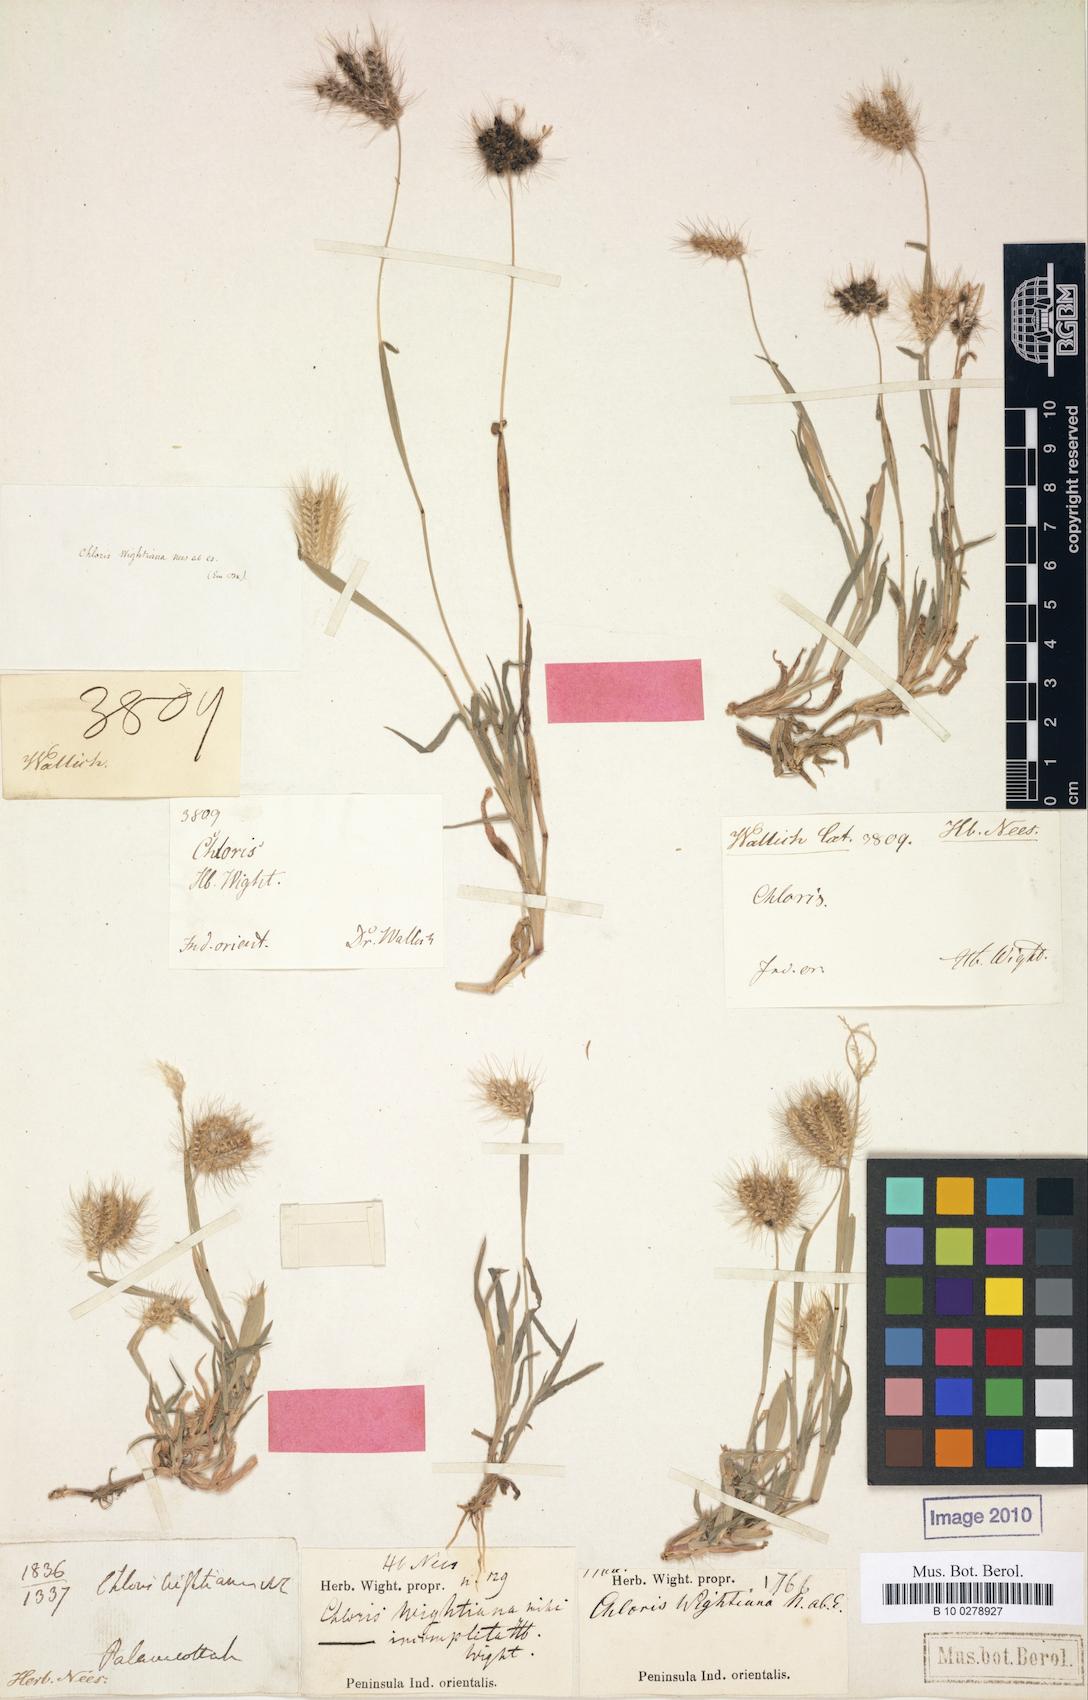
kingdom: Plantae
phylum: Tracheophyta
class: Liliopsida
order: Poales
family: Poaceae
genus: Chloris
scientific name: Chloris wightiana
